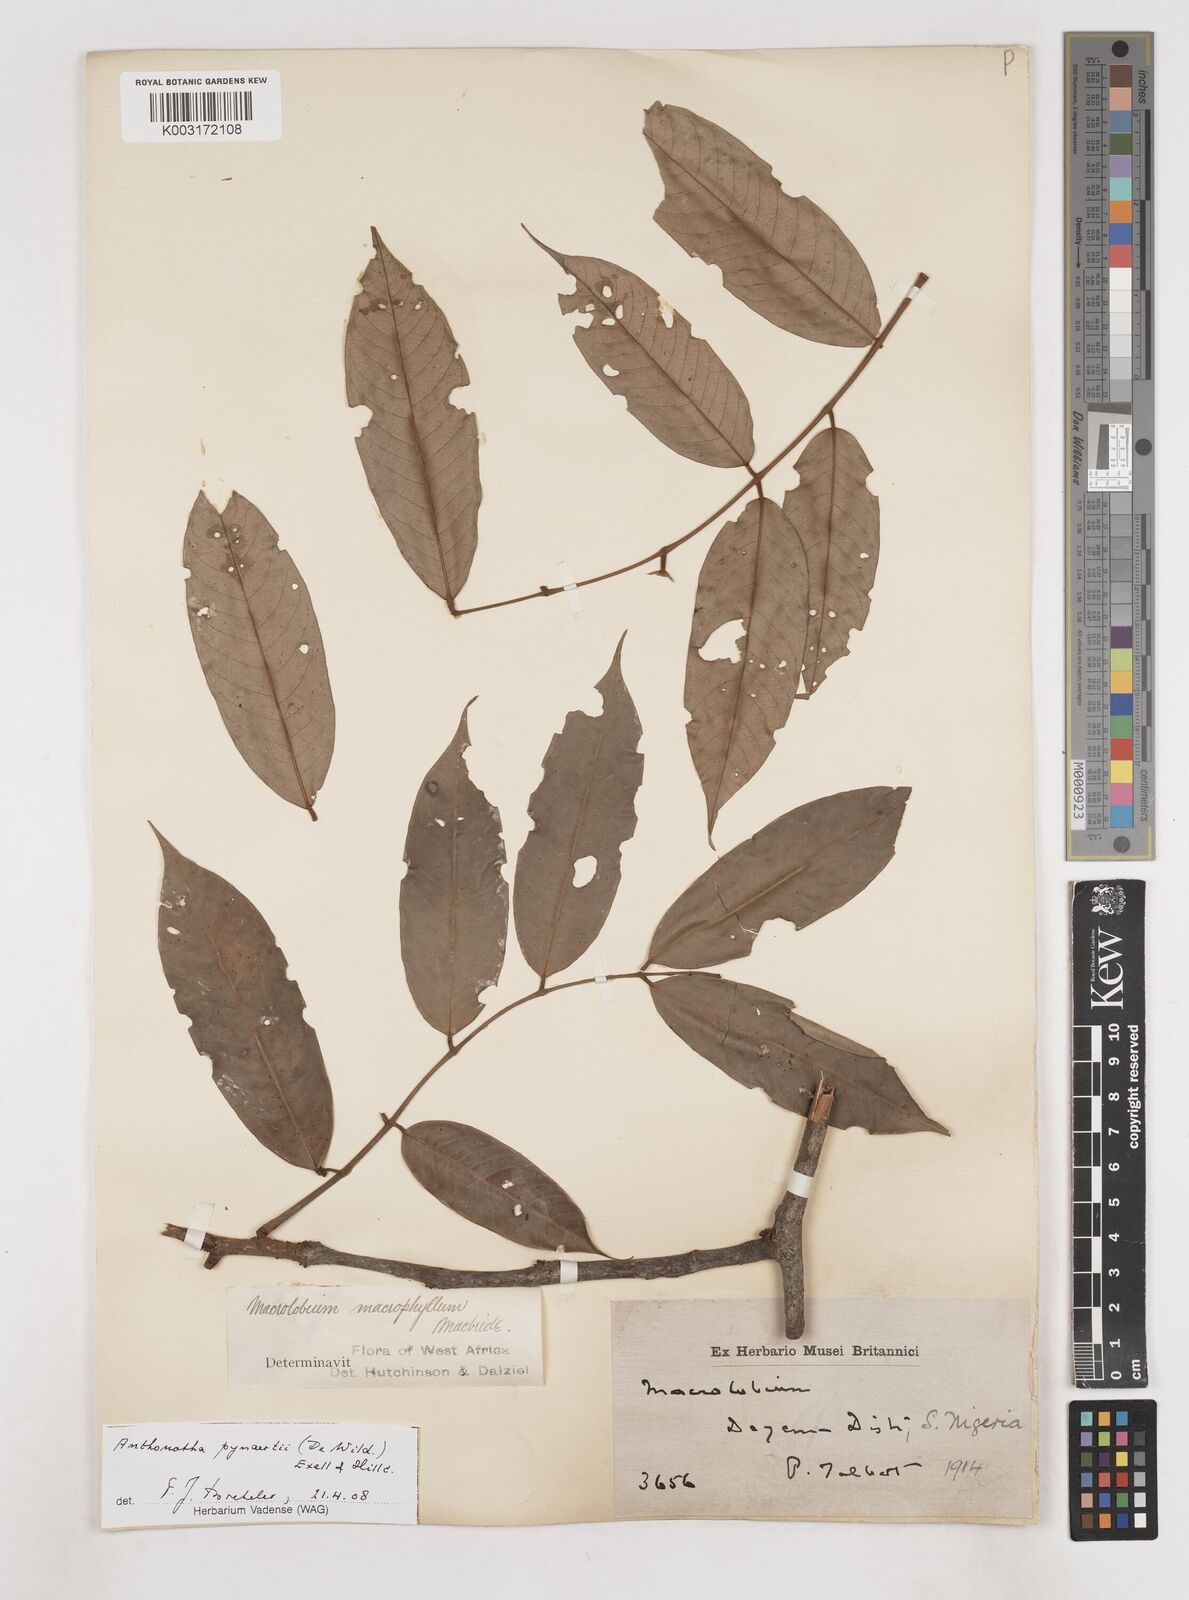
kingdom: Plantae
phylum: Tracheophyta
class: Magnoliopsida
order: Fabales
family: Fabaceae
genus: Anthonotha
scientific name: Anthonotha pynaertii
